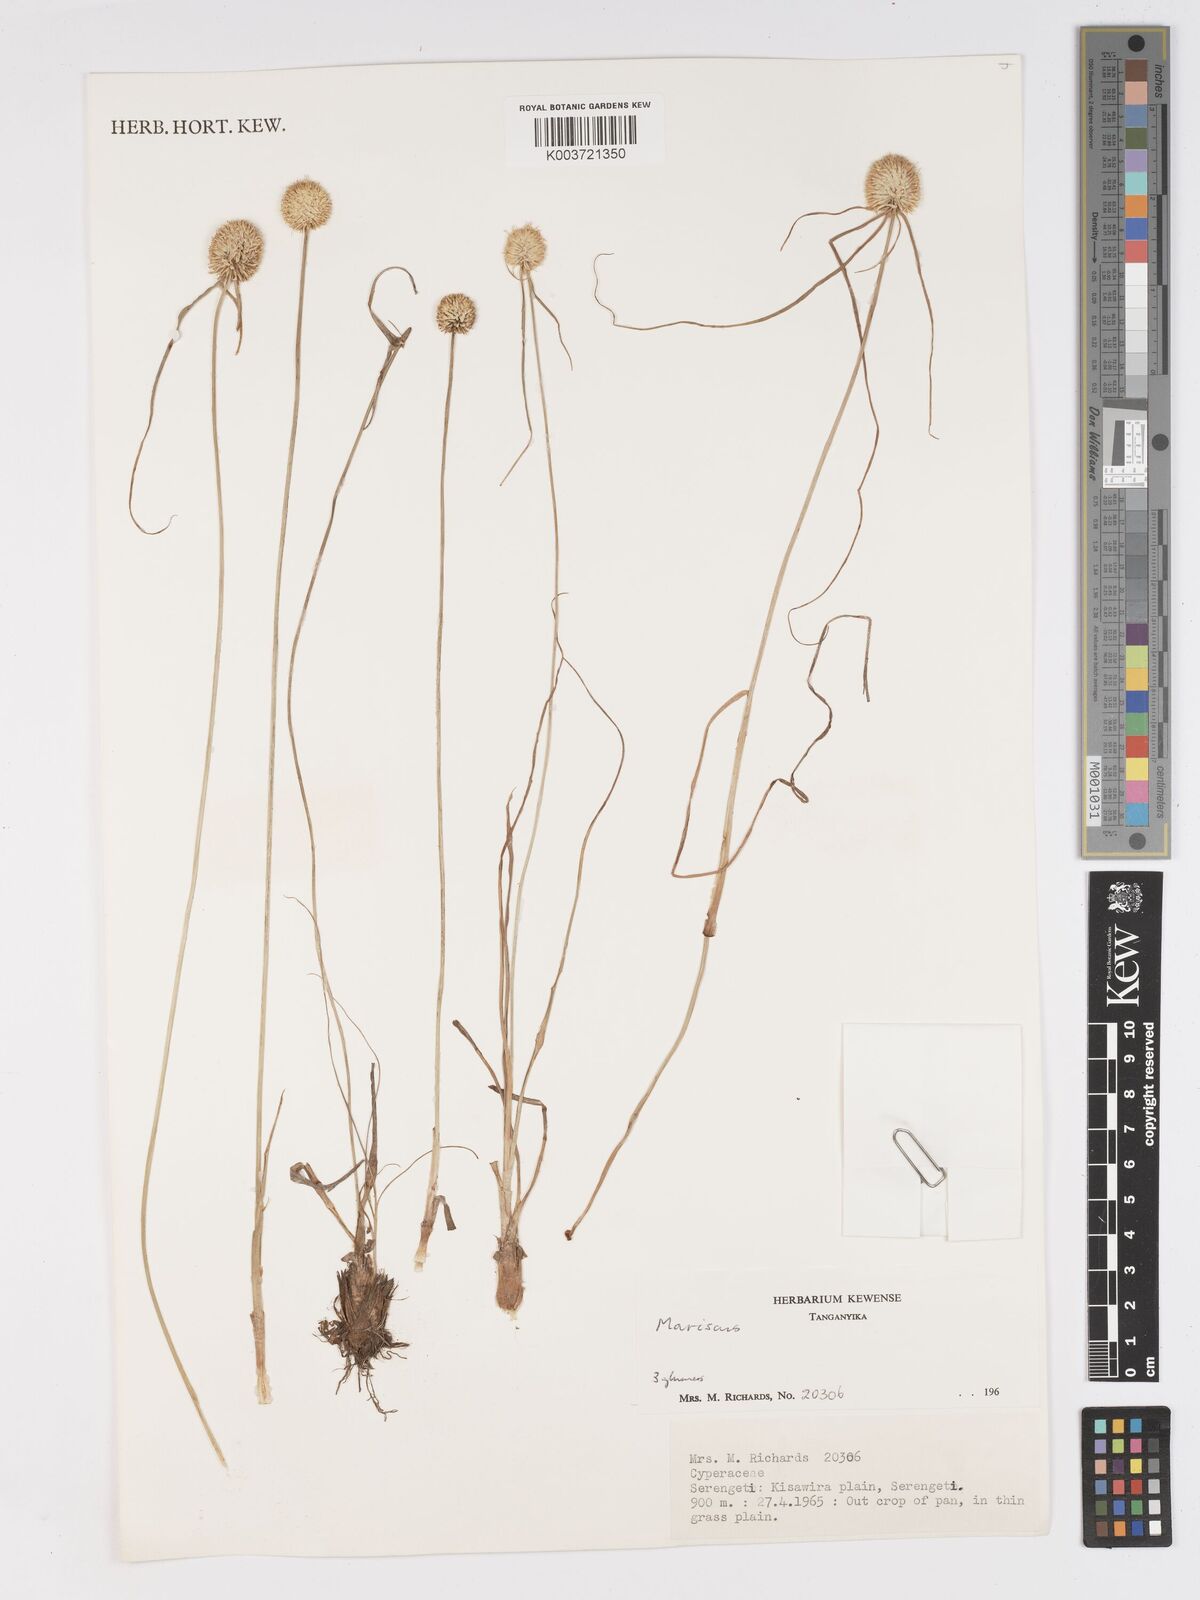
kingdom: Plantae
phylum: Tracheophyta
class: Liliopsida
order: Poales
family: Cyperaceae
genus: Cyperus
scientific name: Cyperus mollipes
